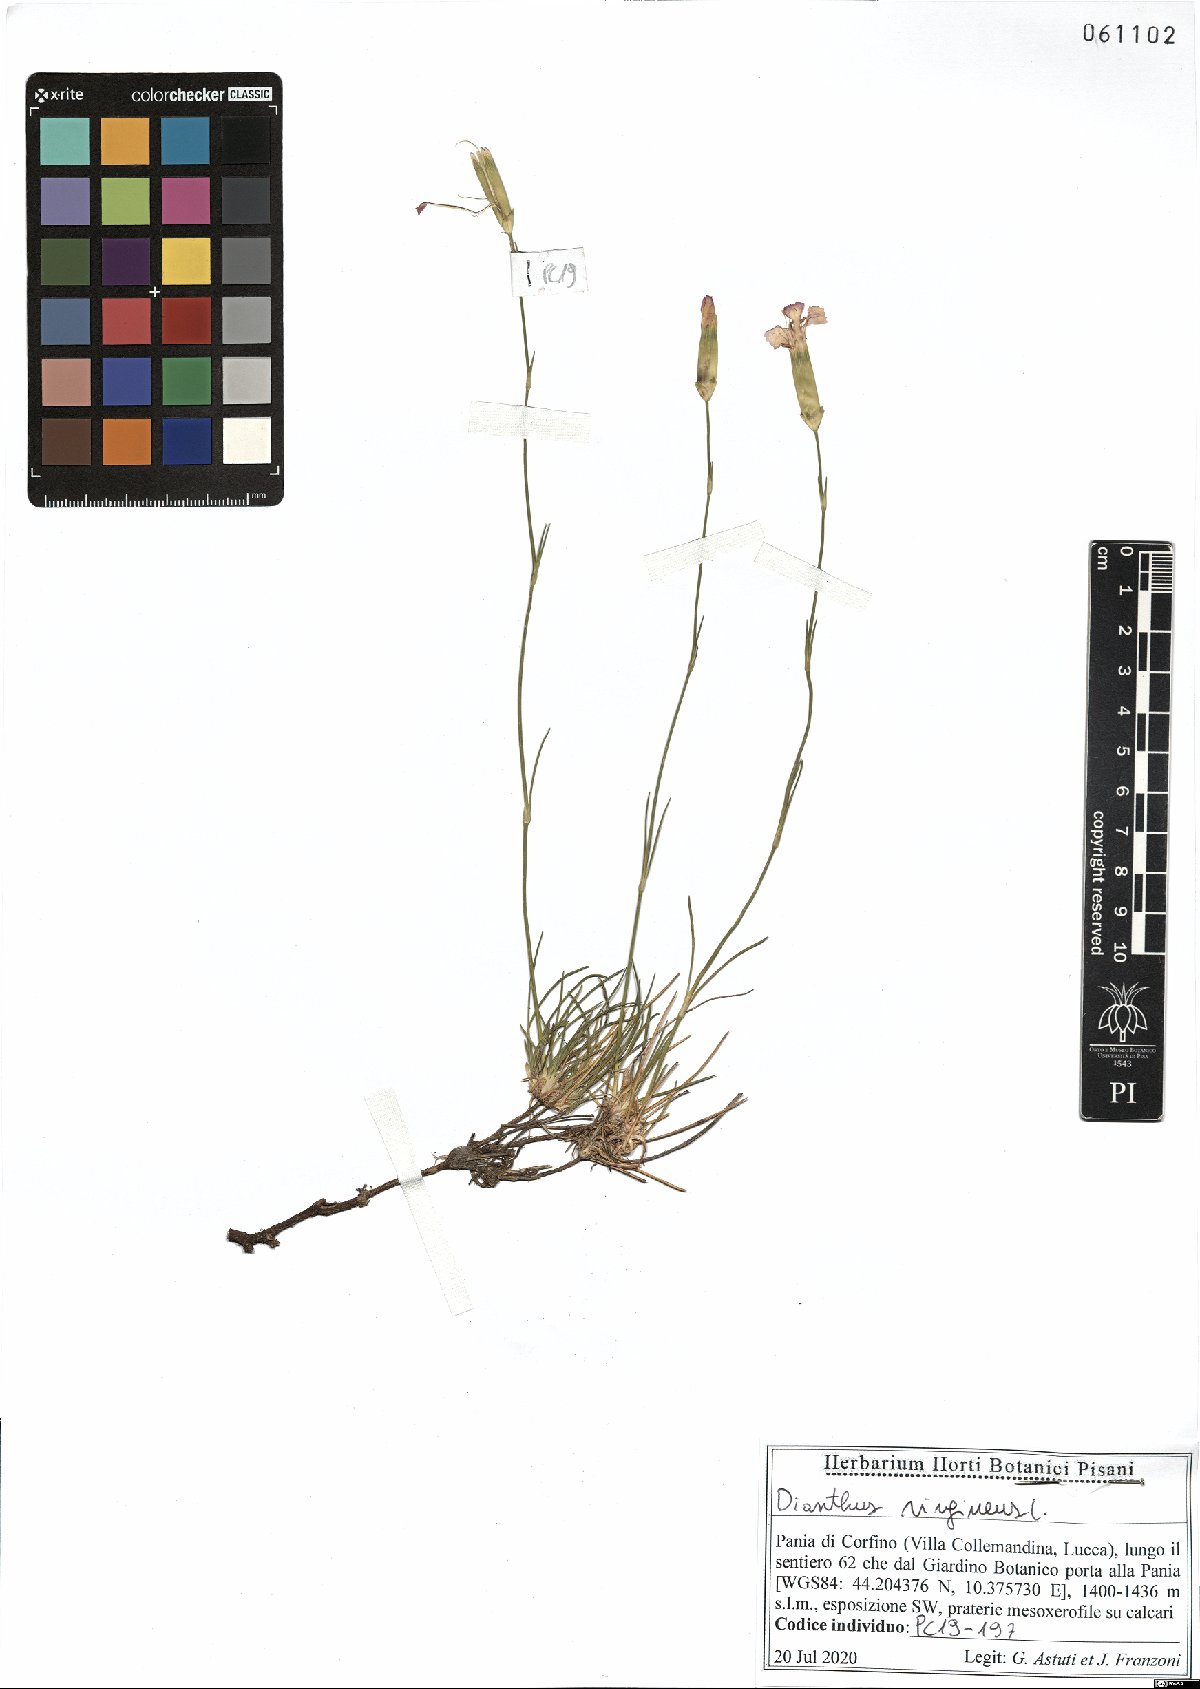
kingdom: Plantae
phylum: Tracheophyta
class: Magnoliopsida
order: Caryophyllales
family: Caryophyllaceae
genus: Dianthus
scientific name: Dianthus virgineus
